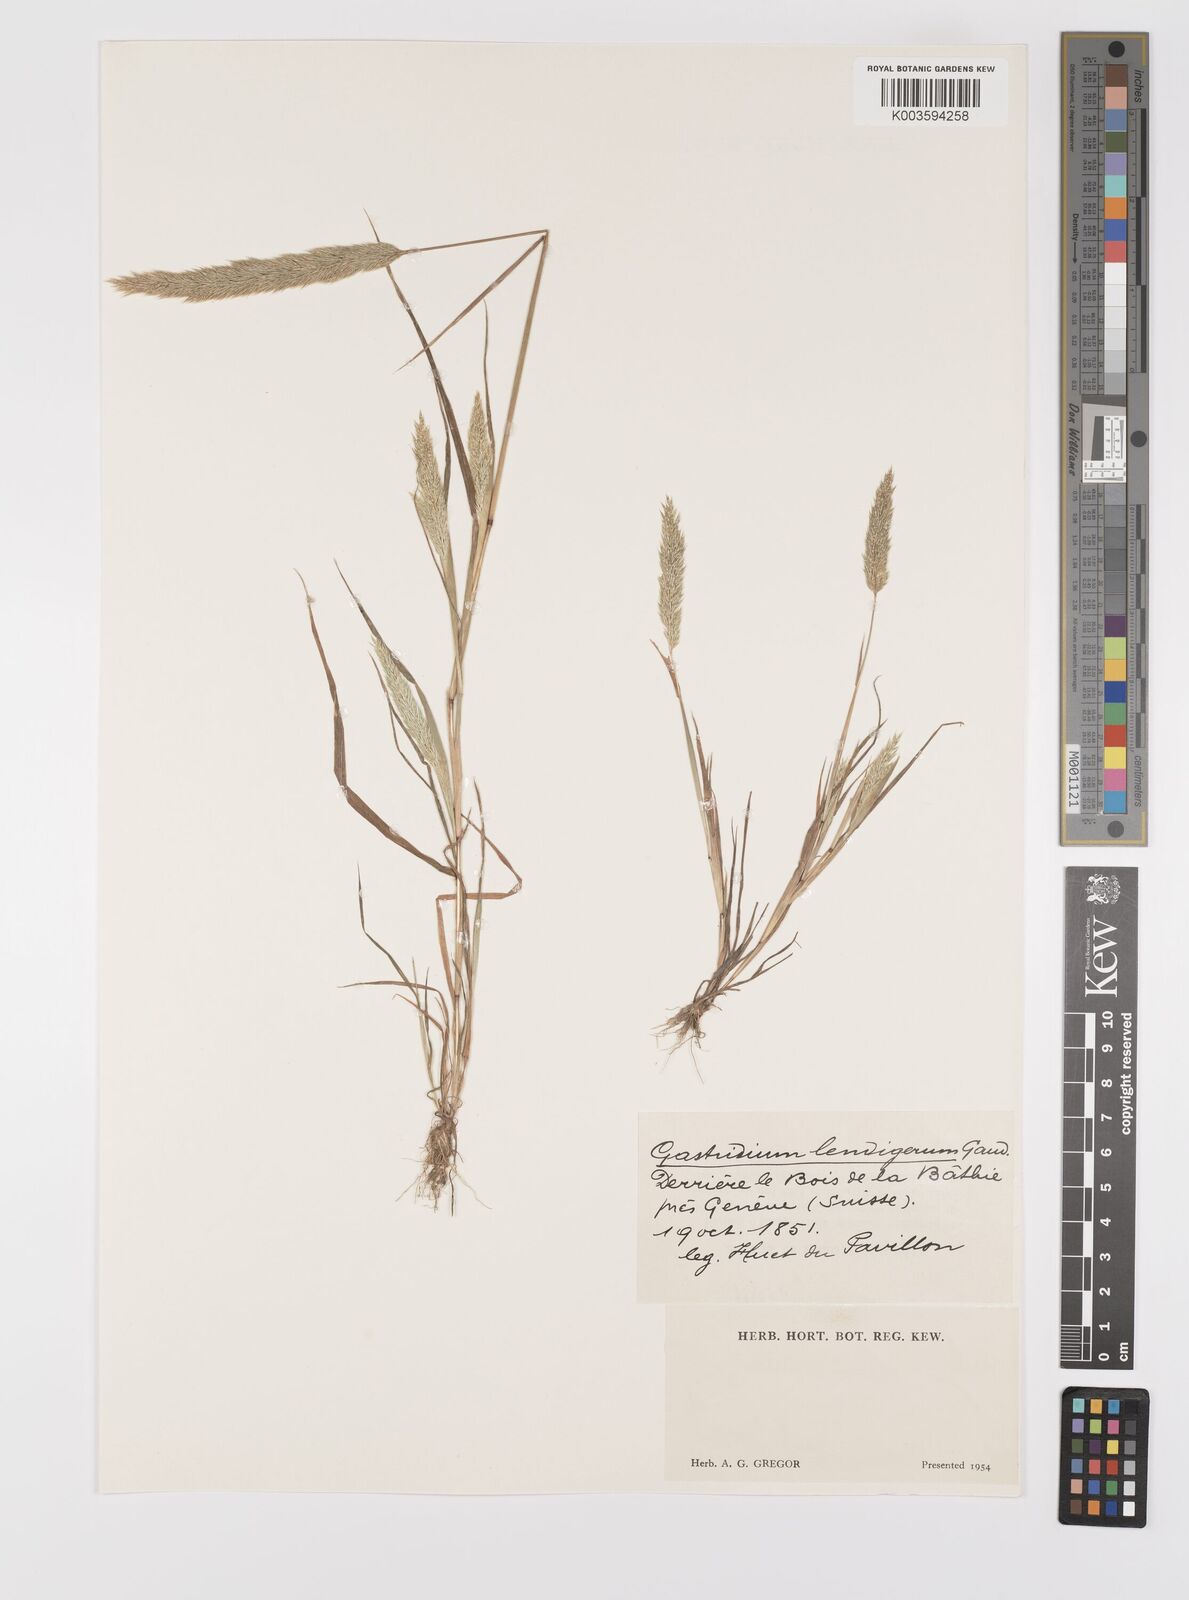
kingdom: Plantae
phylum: Tracheophyta
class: Liliopsida
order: Poales
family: Poaceae
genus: Gastridium
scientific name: Gastridium ventricosum
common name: Nit-grass
